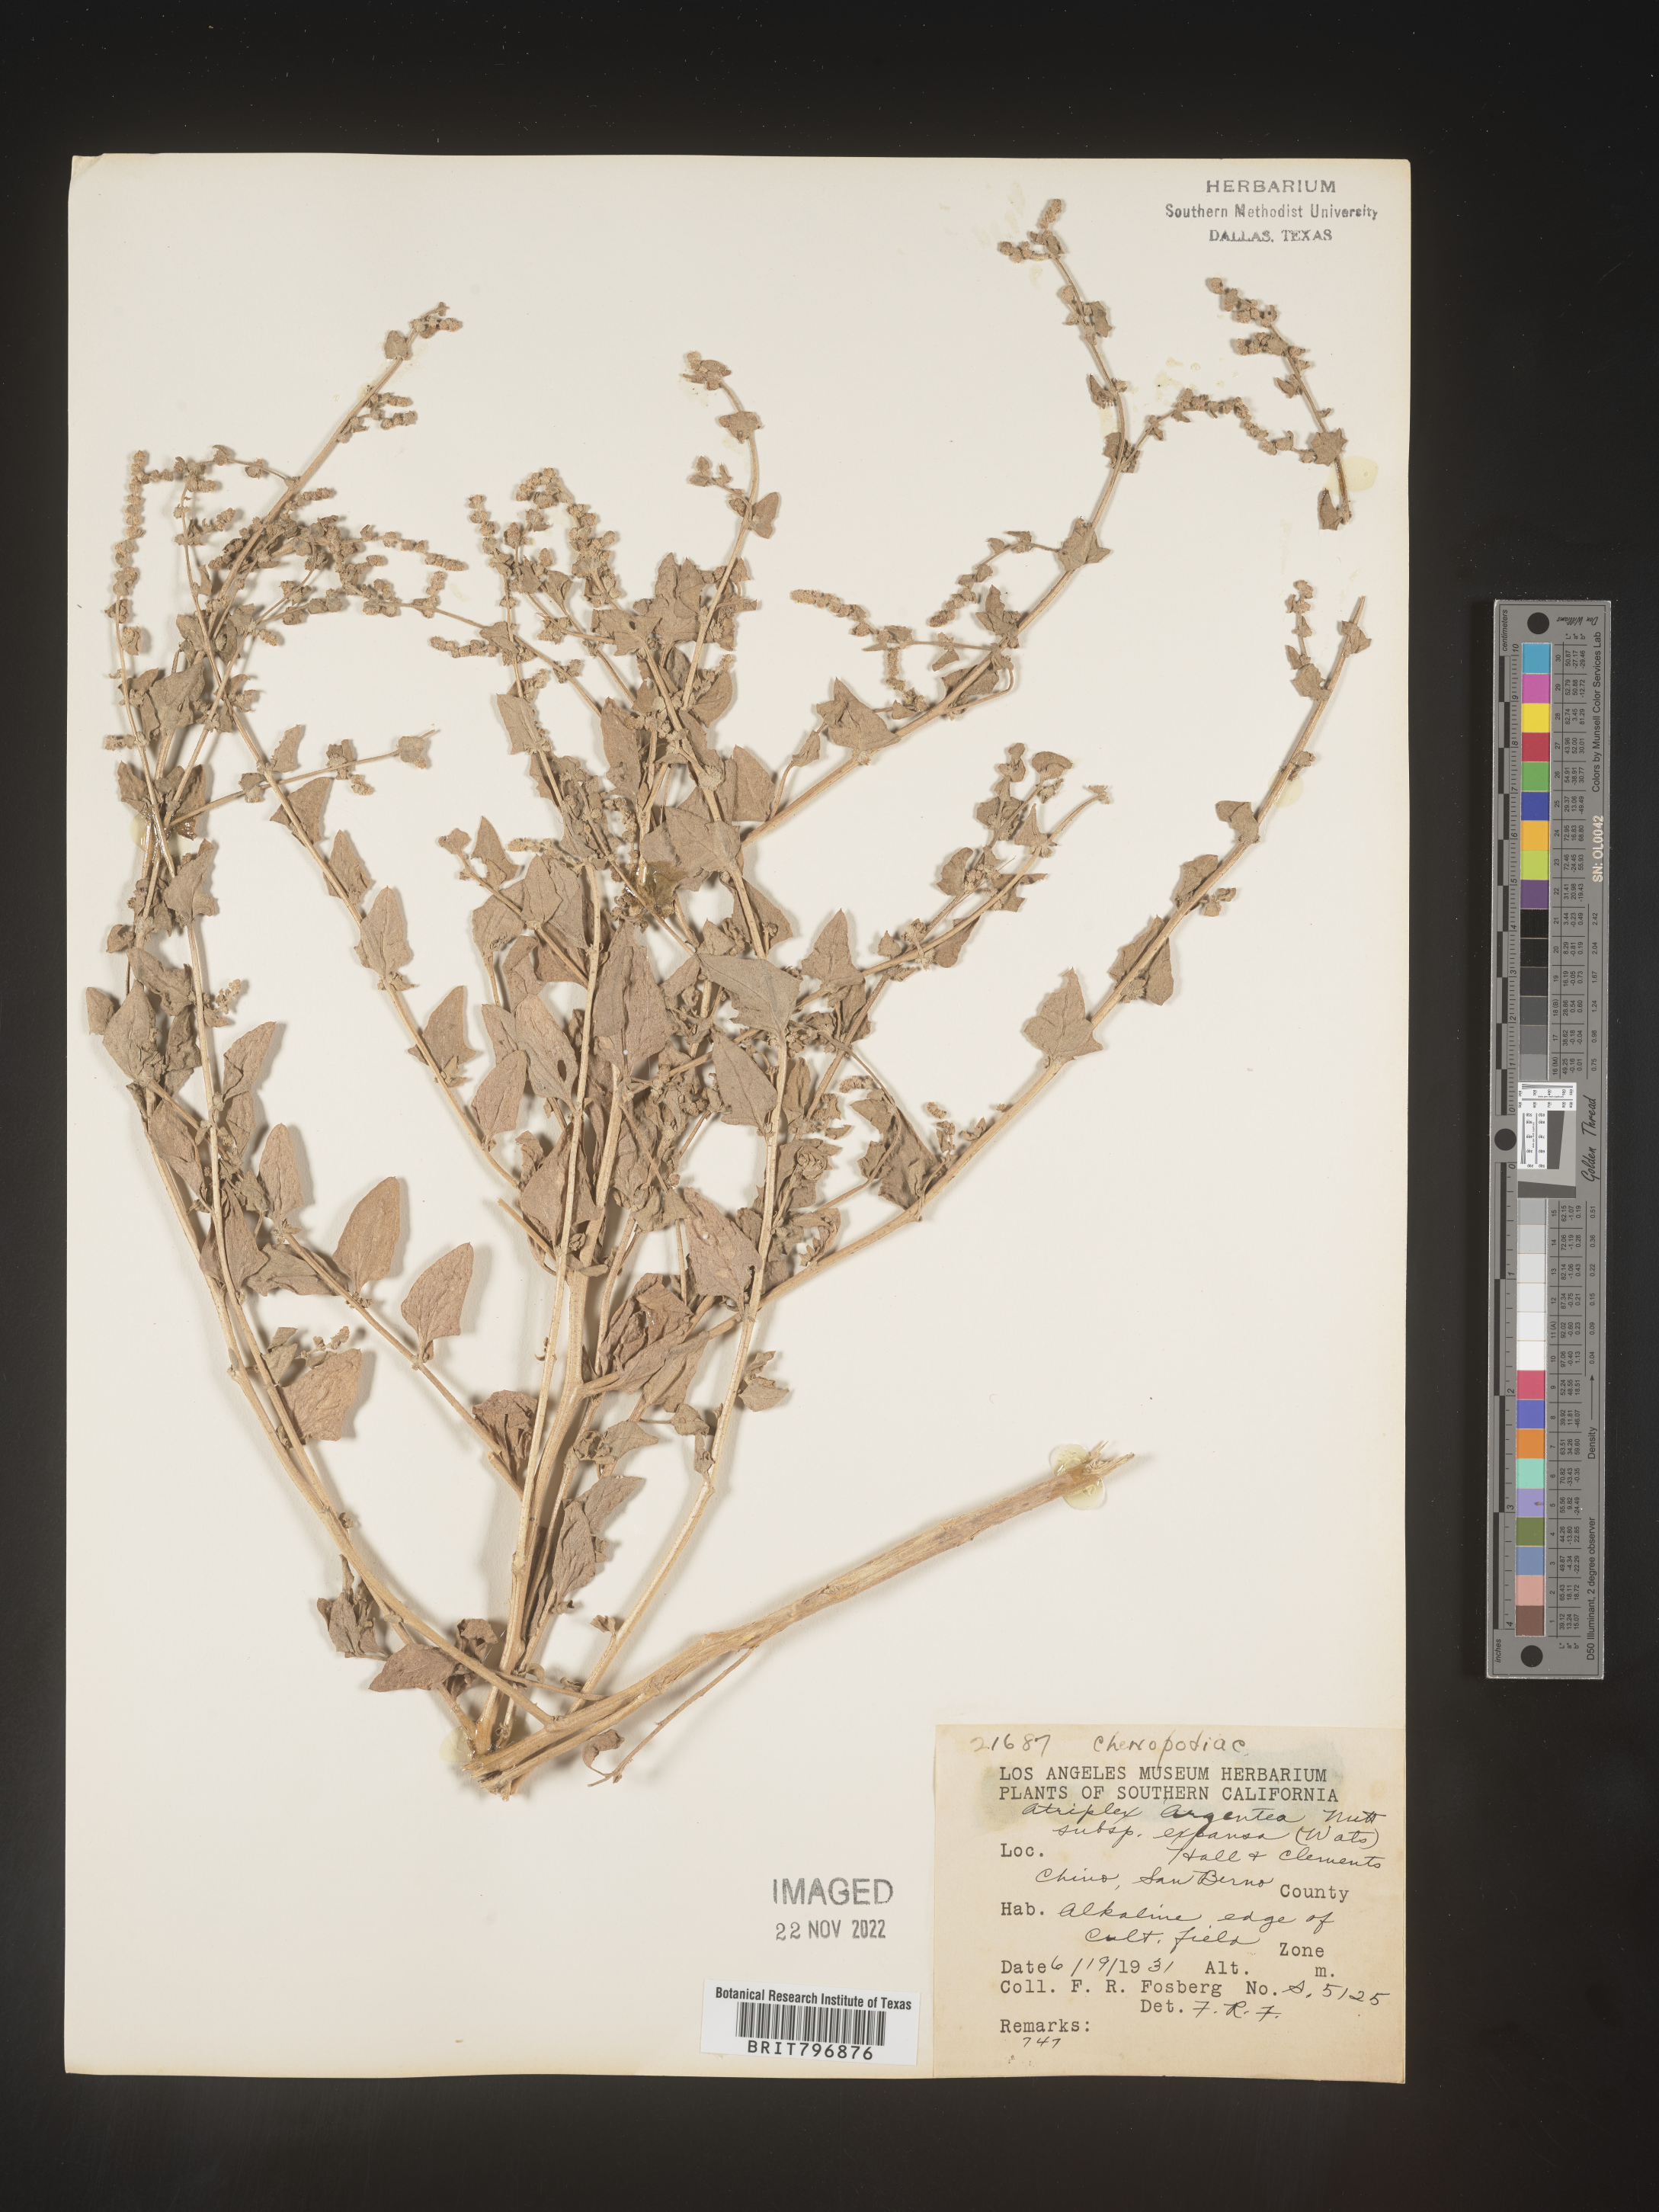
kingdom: Plantae
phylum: Tracheophyta
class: Magnoliopsida
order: Caryophyllales
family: Amaranthaceae
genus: Atriplex
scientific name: Atriplex argentea
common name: Silverscale
